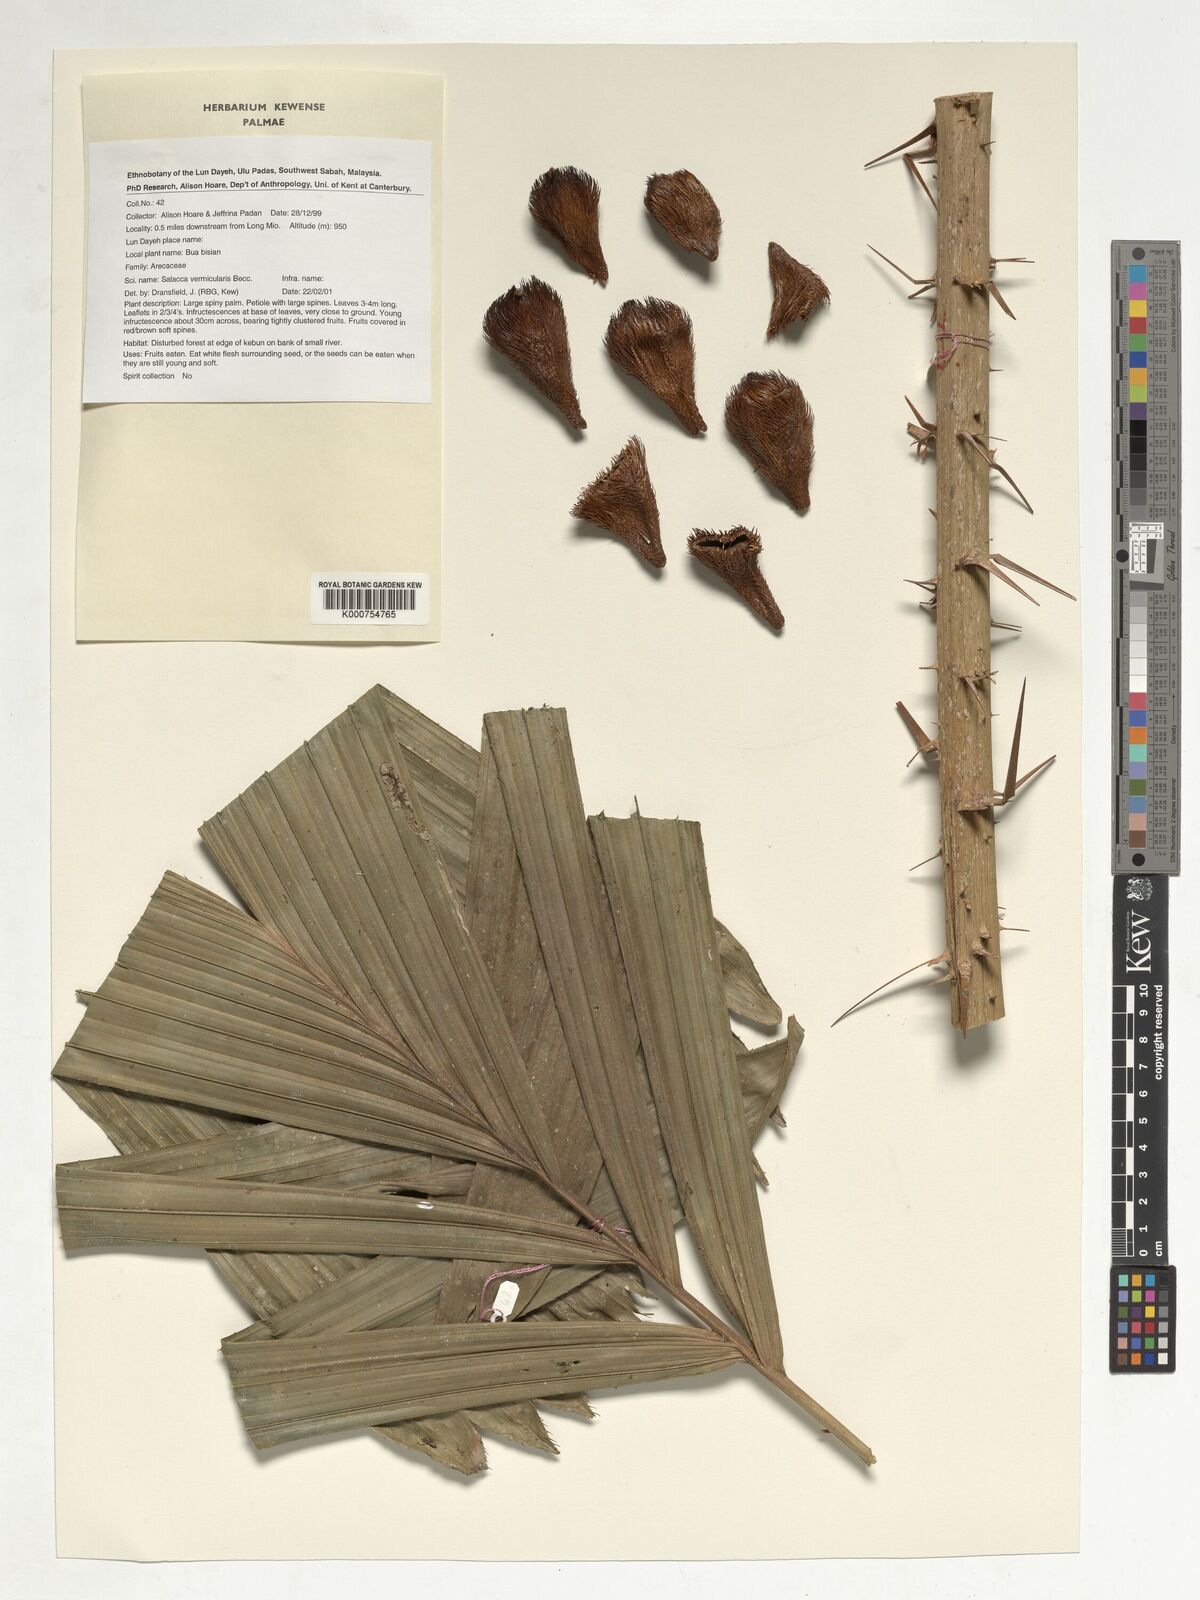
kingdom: Plantae
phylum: Tracheophyta
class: Liliopsida
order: Arecales
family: Arecaceae
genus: Salacca
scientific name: Salacca vermicularis
